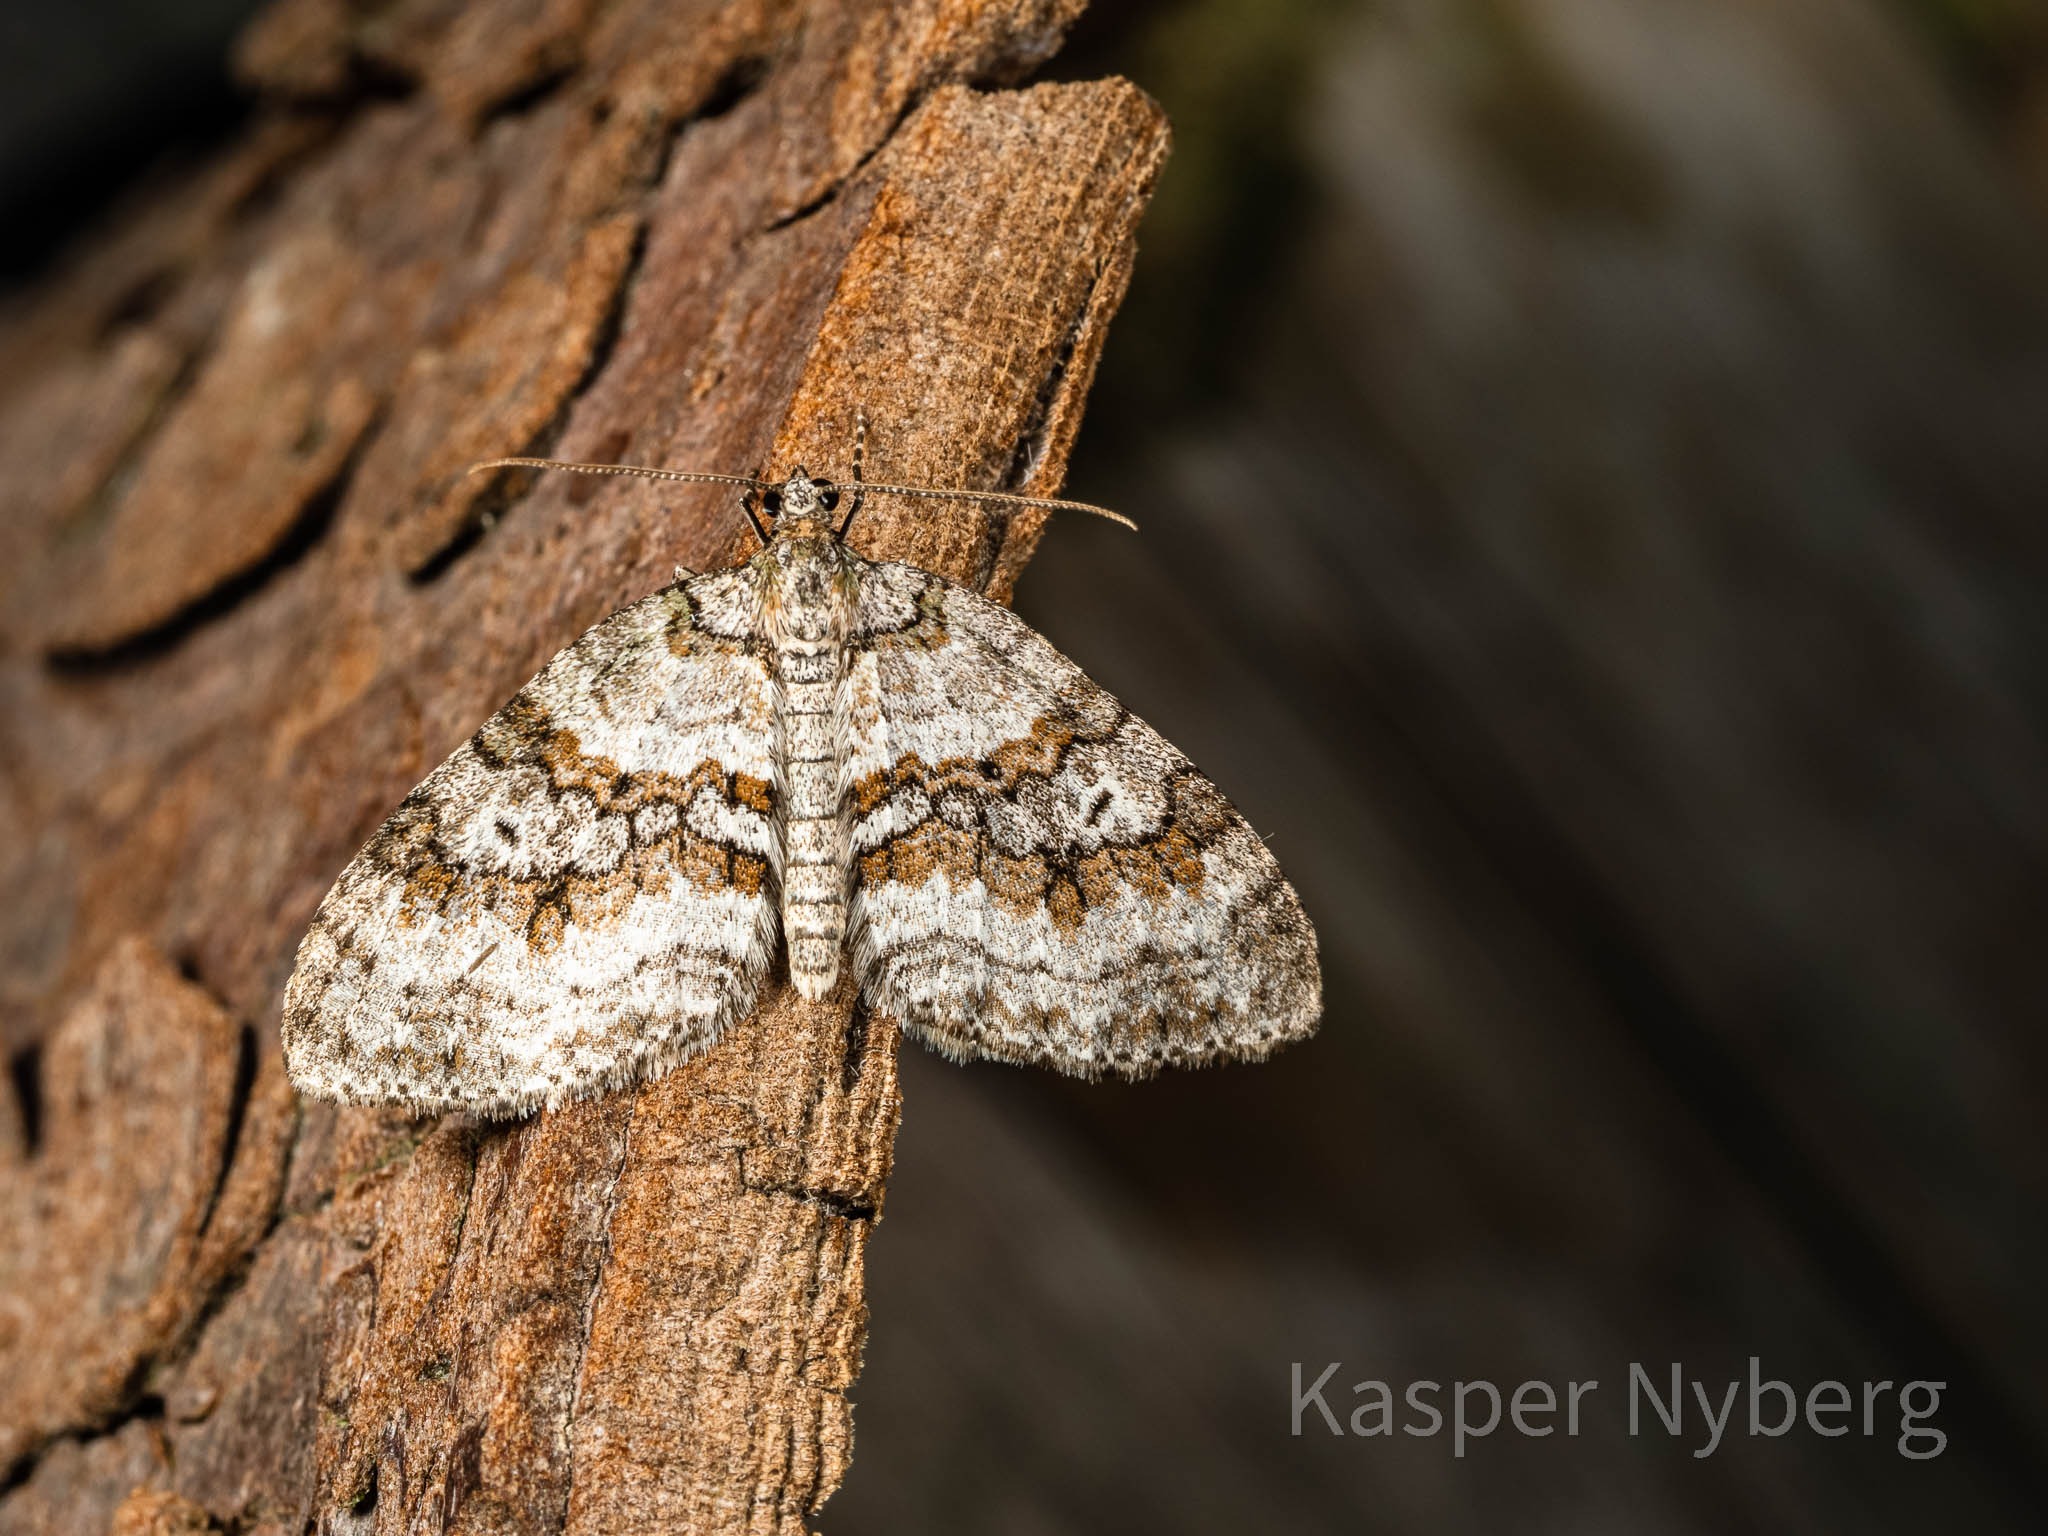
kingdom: Animalia
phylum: Arthropoda
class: Insecta
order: Lepidoptera
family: Geometridae
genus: Nothocasis
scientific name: Nothocasis sertata
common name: Ahornmåler
